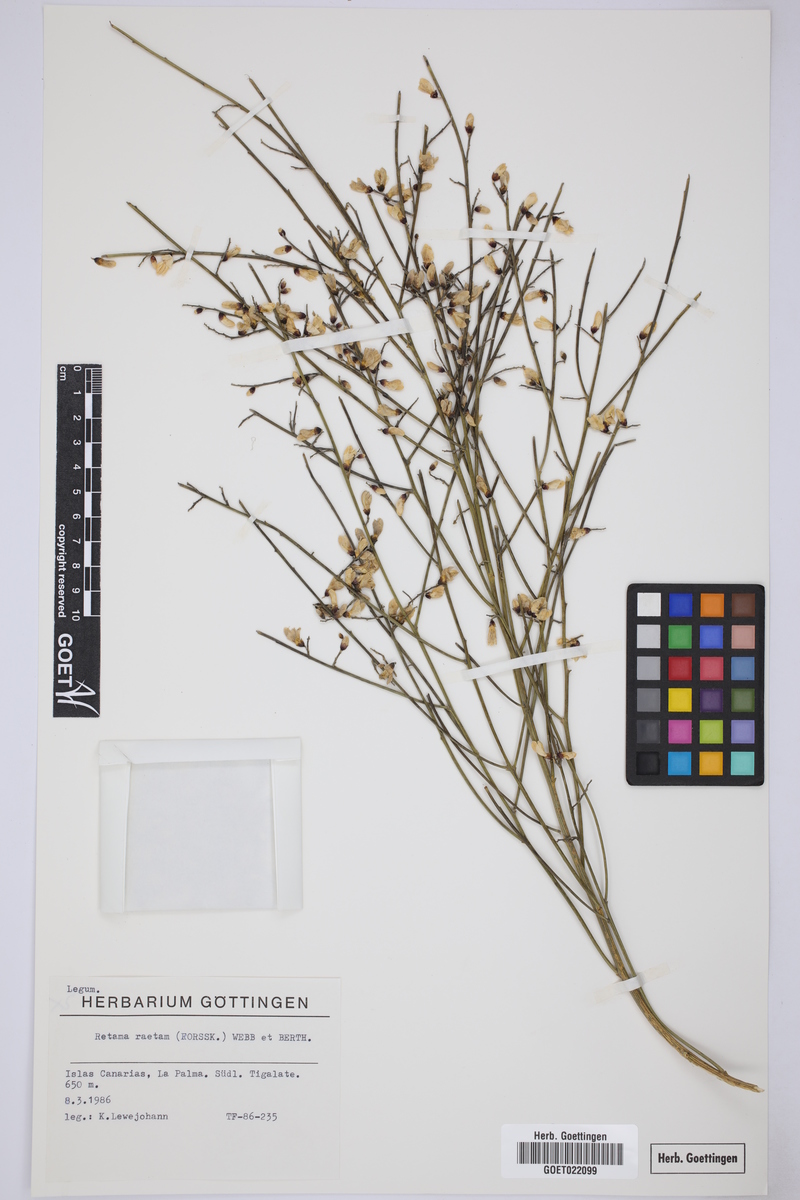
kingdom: Plantae
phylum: Tracheophyta
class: Magnoliopsida
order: Fabales
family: Fabaceae
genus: Retama
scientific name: Retama raetam
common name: Retem
